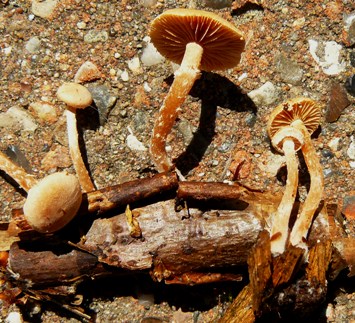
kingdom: Fungi
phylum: Basidiomycota
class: Agaricomycetes
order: Agaricales
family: Omphalotaceae
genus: Collybiopsis
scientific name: Collybiopsis confluens
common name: knippe-fladhat
